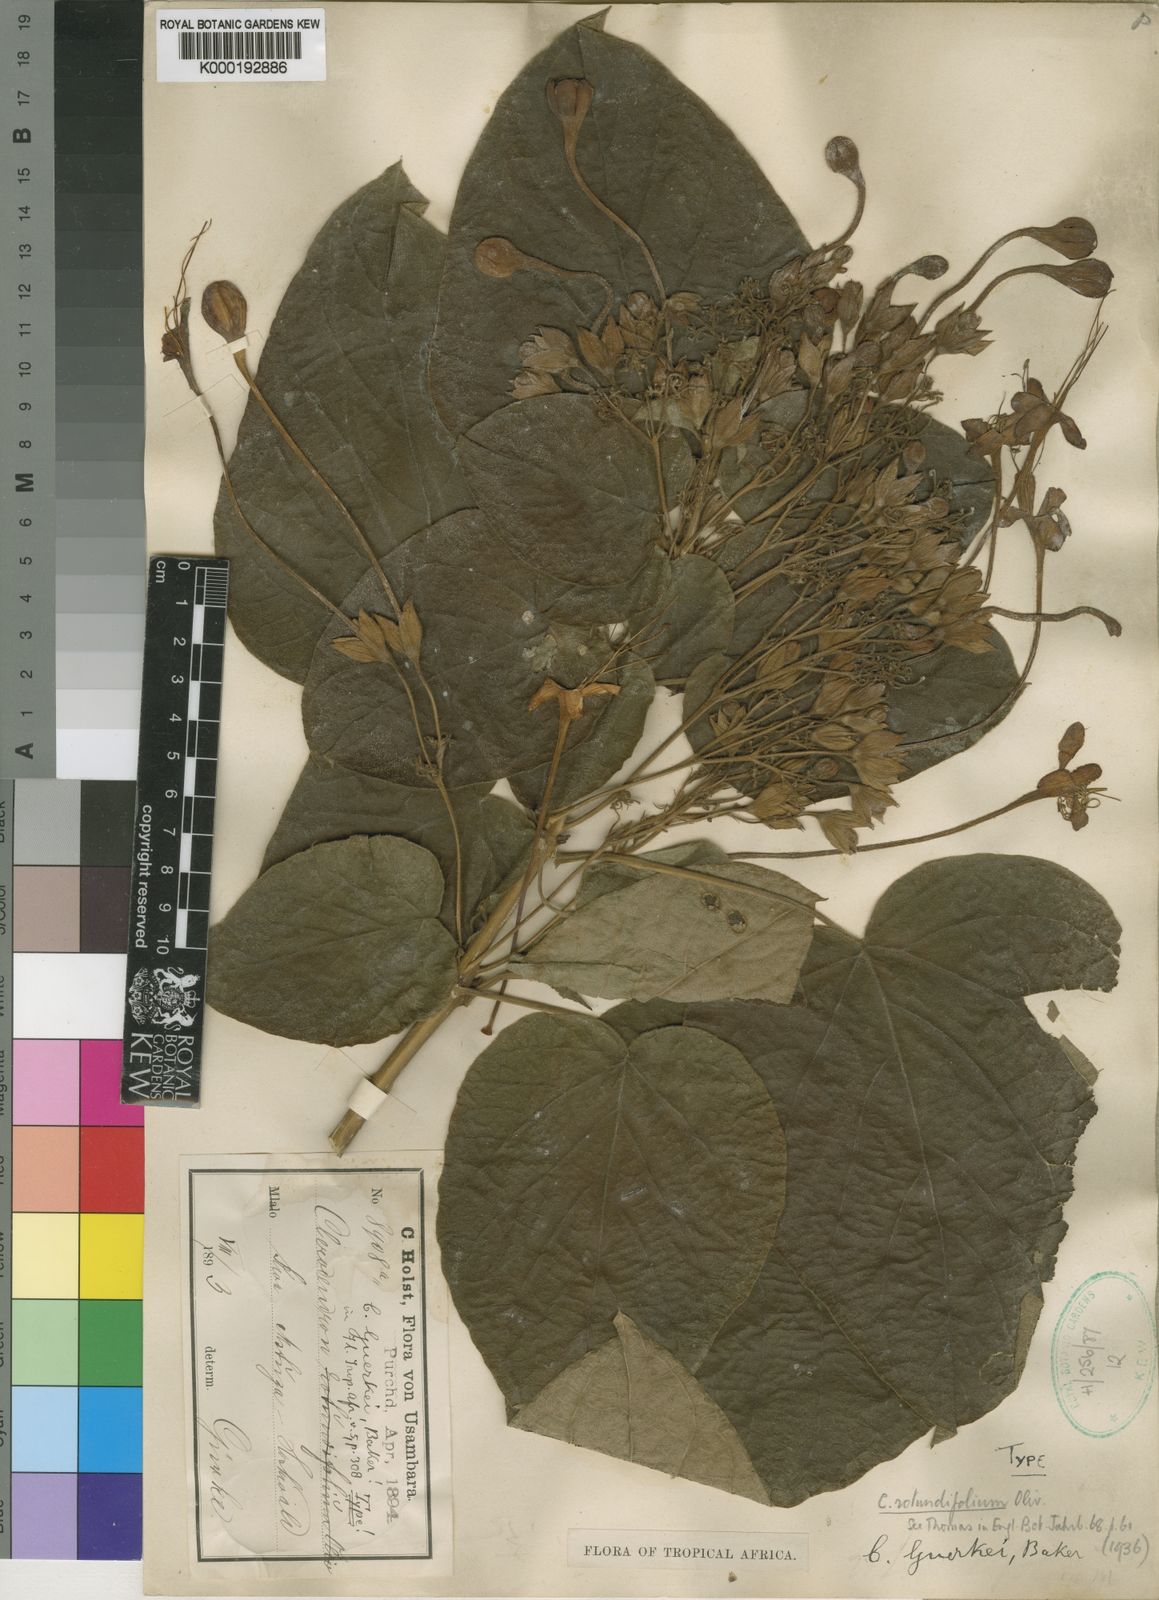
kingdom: Plantae
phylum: Tracheophyta
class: Magnoliopsida
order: Lamiales
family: Lamiaceae
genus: Clerodendrum
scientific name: Clerodendrum rotundifolium
